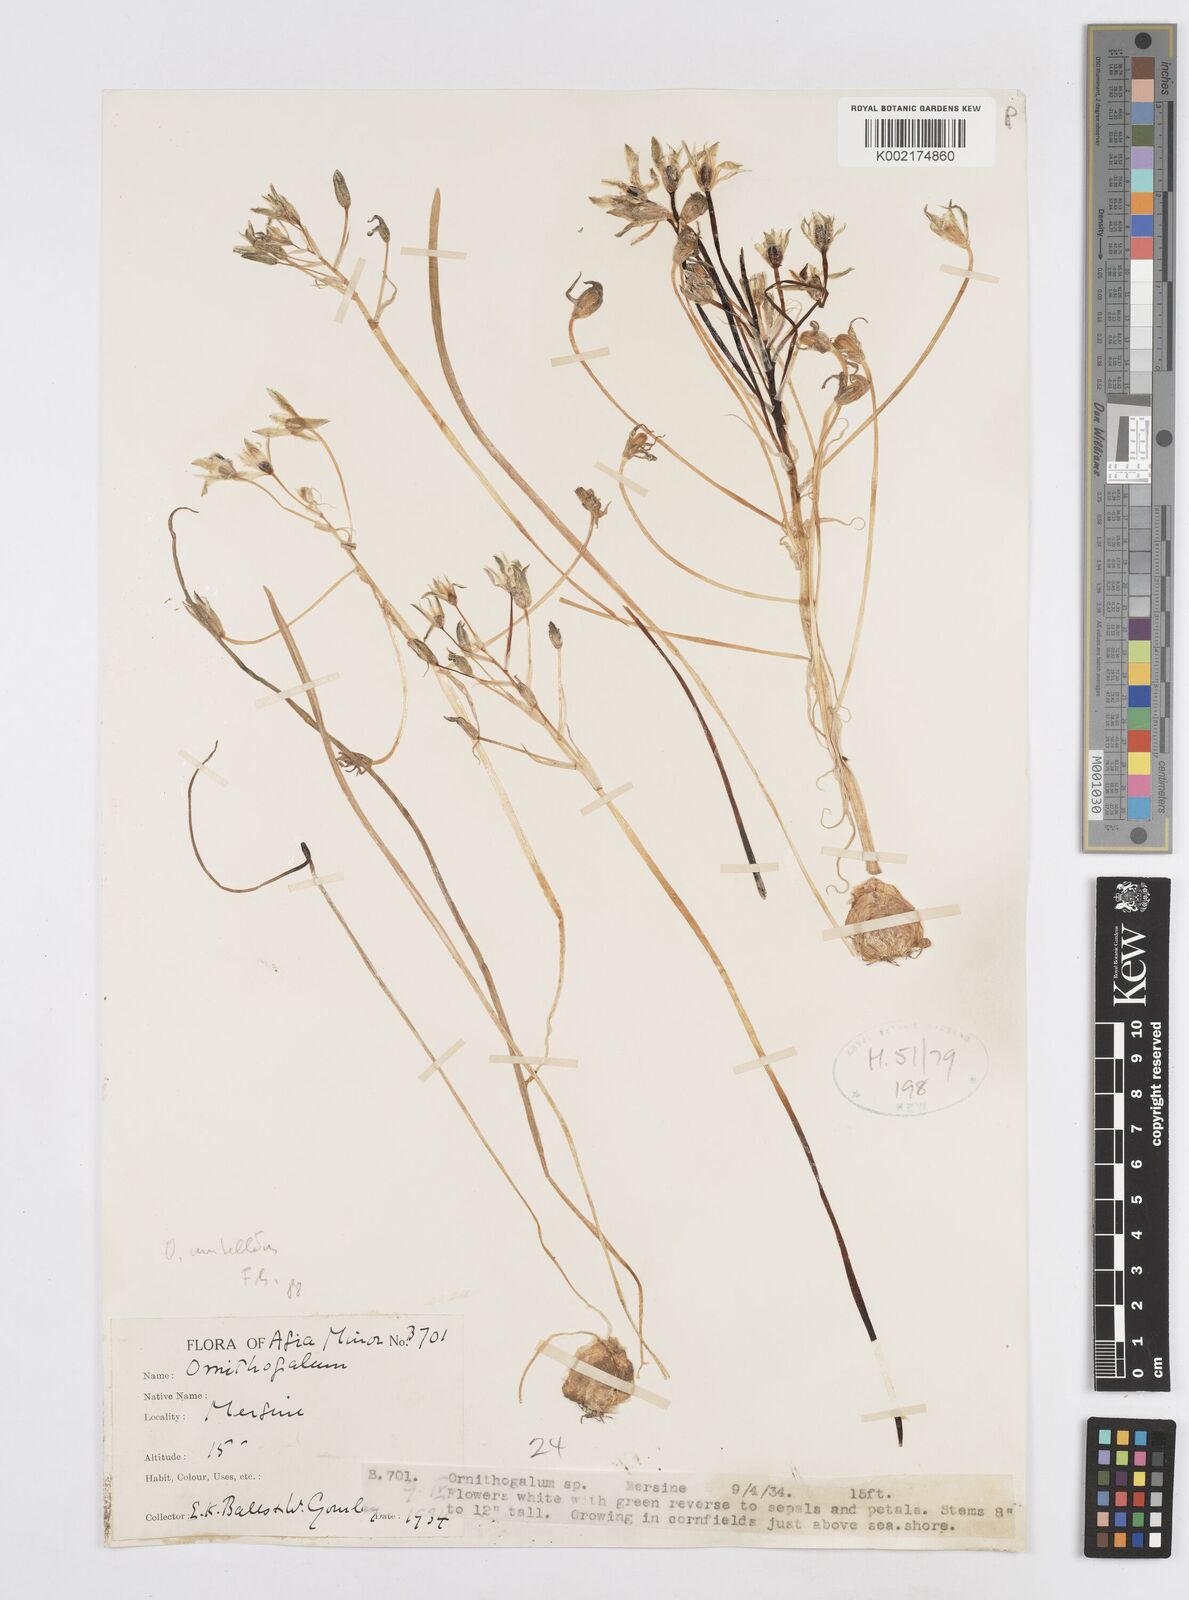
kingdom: Plantae
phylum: Tracheophyta
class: Liliopsida
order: Asparagales
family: Asparagaceae
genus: Ornithogalum
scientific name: Ornithogalum umbellatum
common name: Garden star-of-bethlehem
